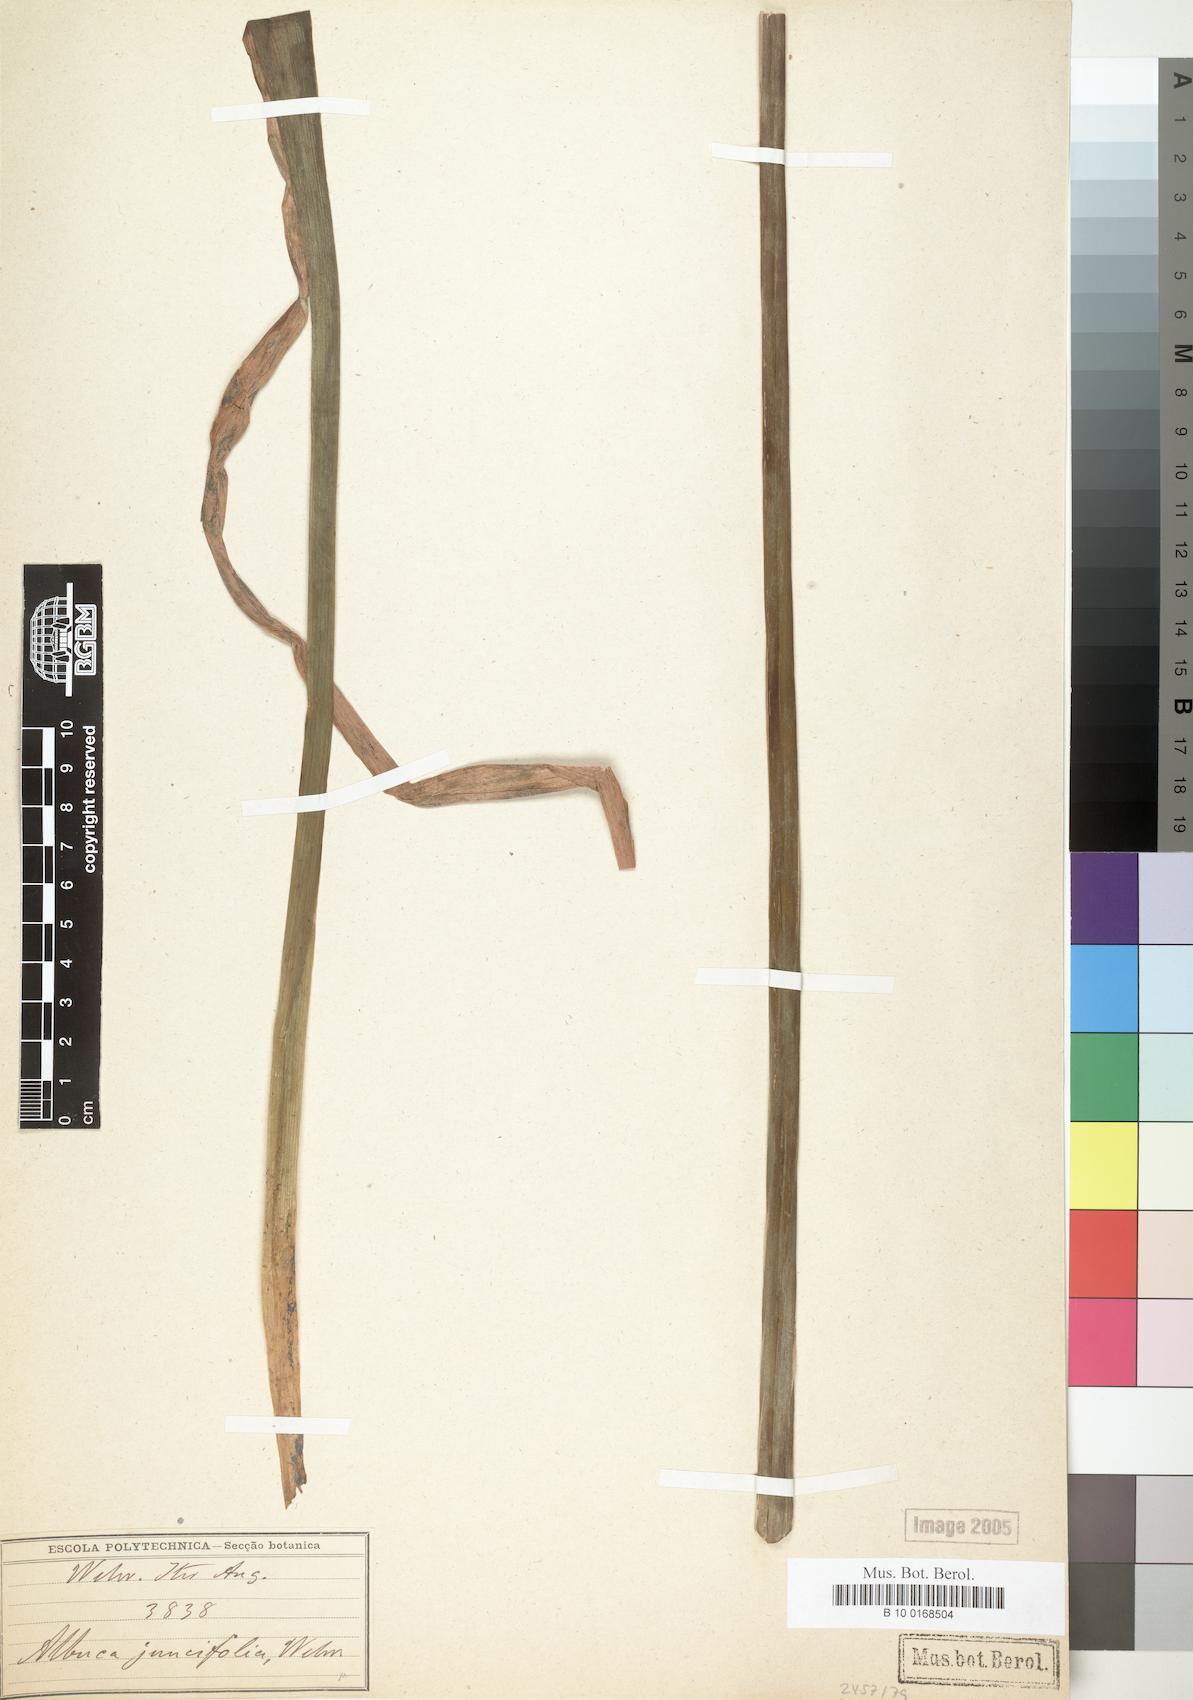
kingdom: Plantae
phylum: Tracheophyta
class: Liliopsida
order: Asparagales
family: Asparagaceae
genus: Albuca
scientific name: Albuca
